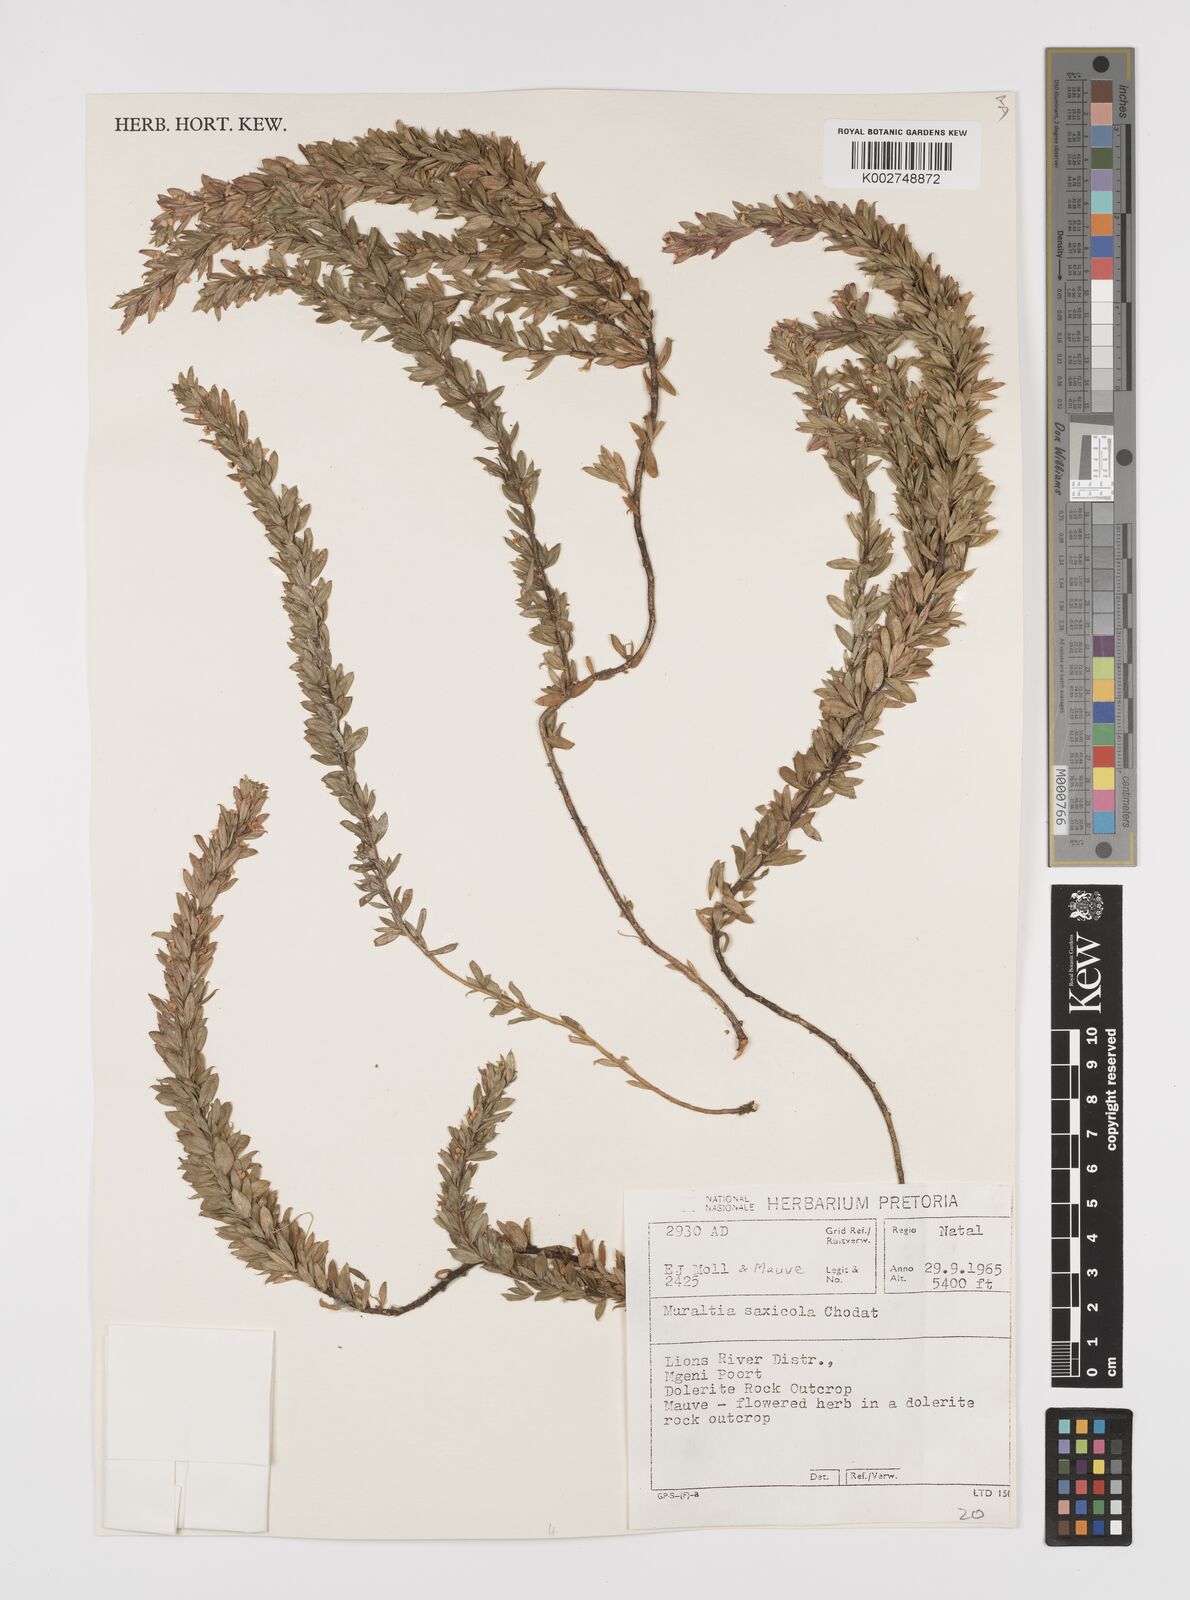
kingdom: Plantae
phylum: Tracheophyta
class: Magnoliopsida
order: Fabales
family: Polygalaceae
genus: Muraltia
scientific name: Muraltia saxicola
